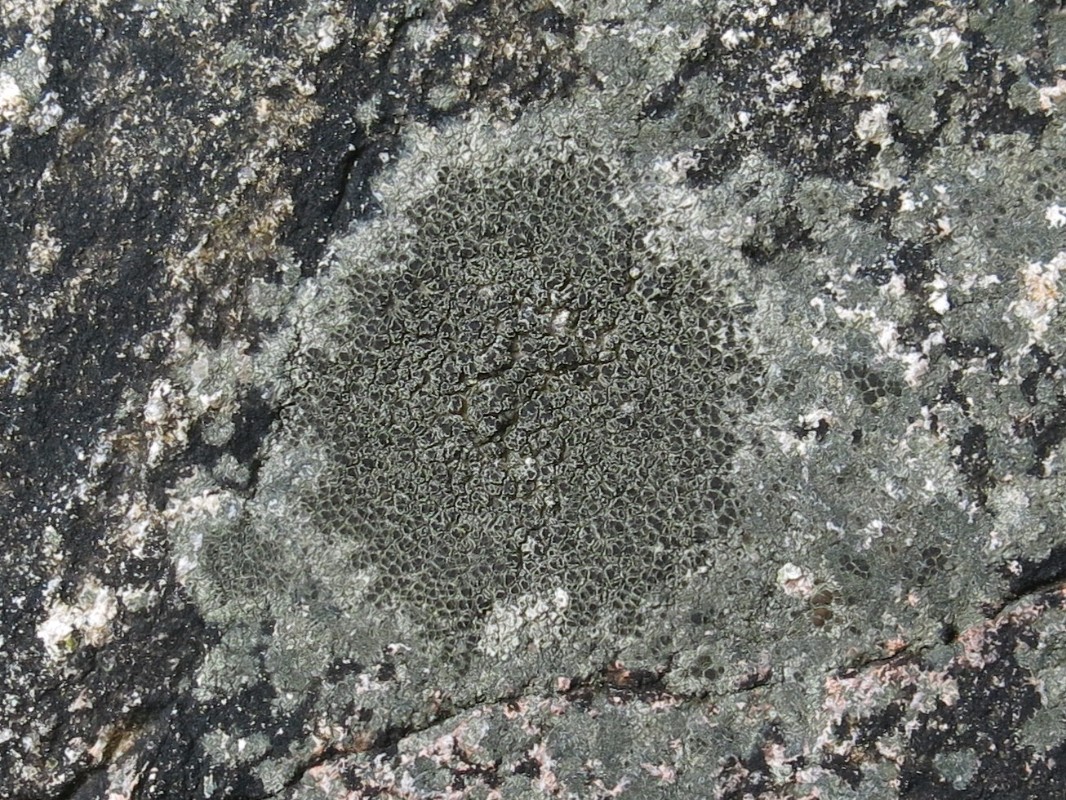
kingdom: Fungi
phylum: Ascomycota
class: Lecanoromycetes
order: Lecanorales
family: Lecanoraceae
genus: Lecanora
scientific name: Lecanora helicopis
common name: salt-kantskivelav
